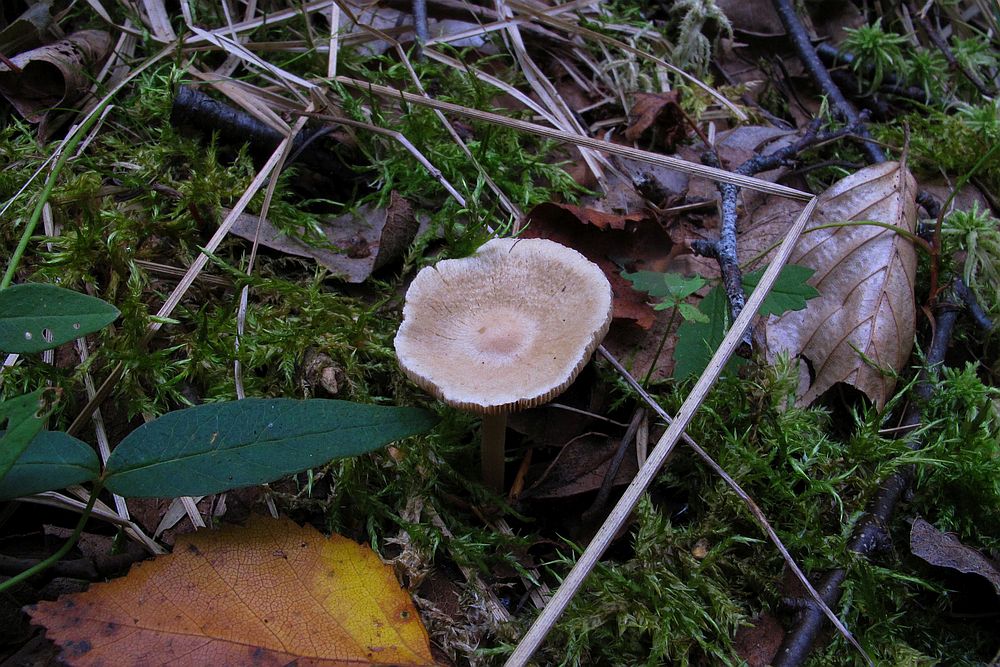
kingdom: Fungi
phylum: Basidiomycota
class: Agaricomycetes
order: Agaricales
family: Inocybaceae
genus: Inocybe
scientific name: Inocybe paludinella
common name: mose-trævlhat
